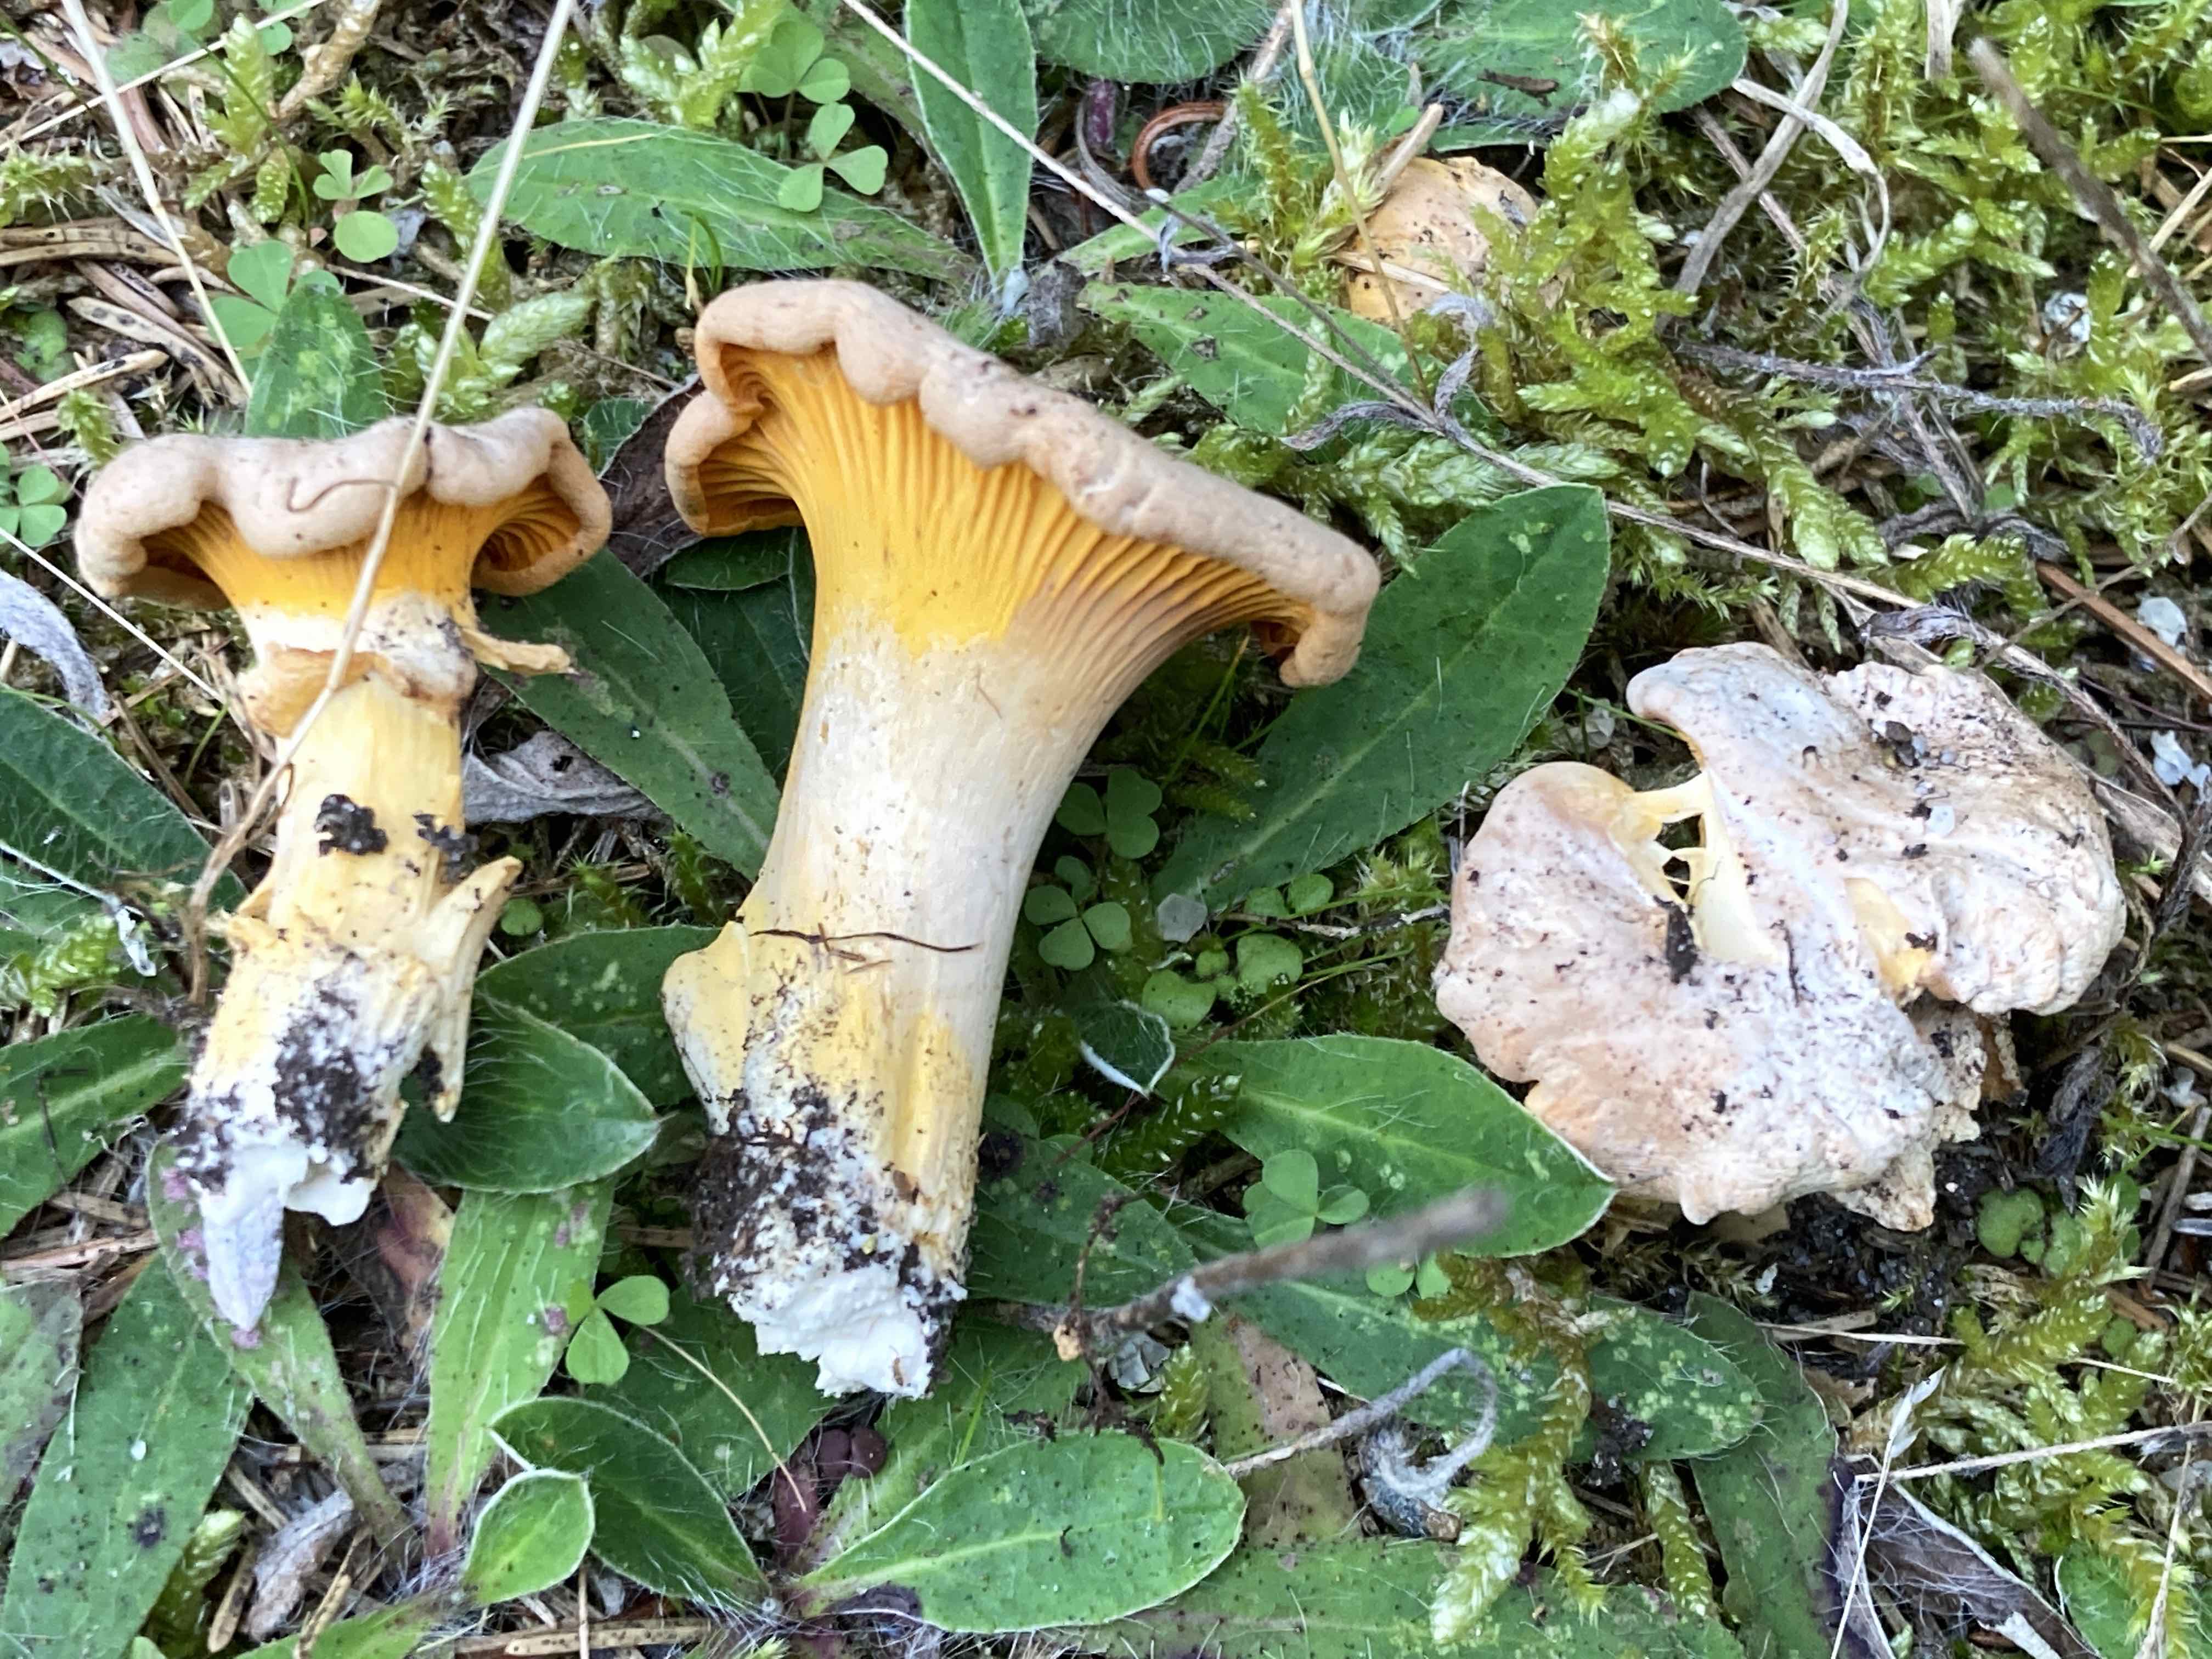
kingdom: Fungi
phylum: Basidiomycota
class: Agaricomycetes
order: Cantharellales
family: Hydnaceae
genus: Cantharellus
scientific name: Cantharellus cibarius
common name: almindelig kantarel
